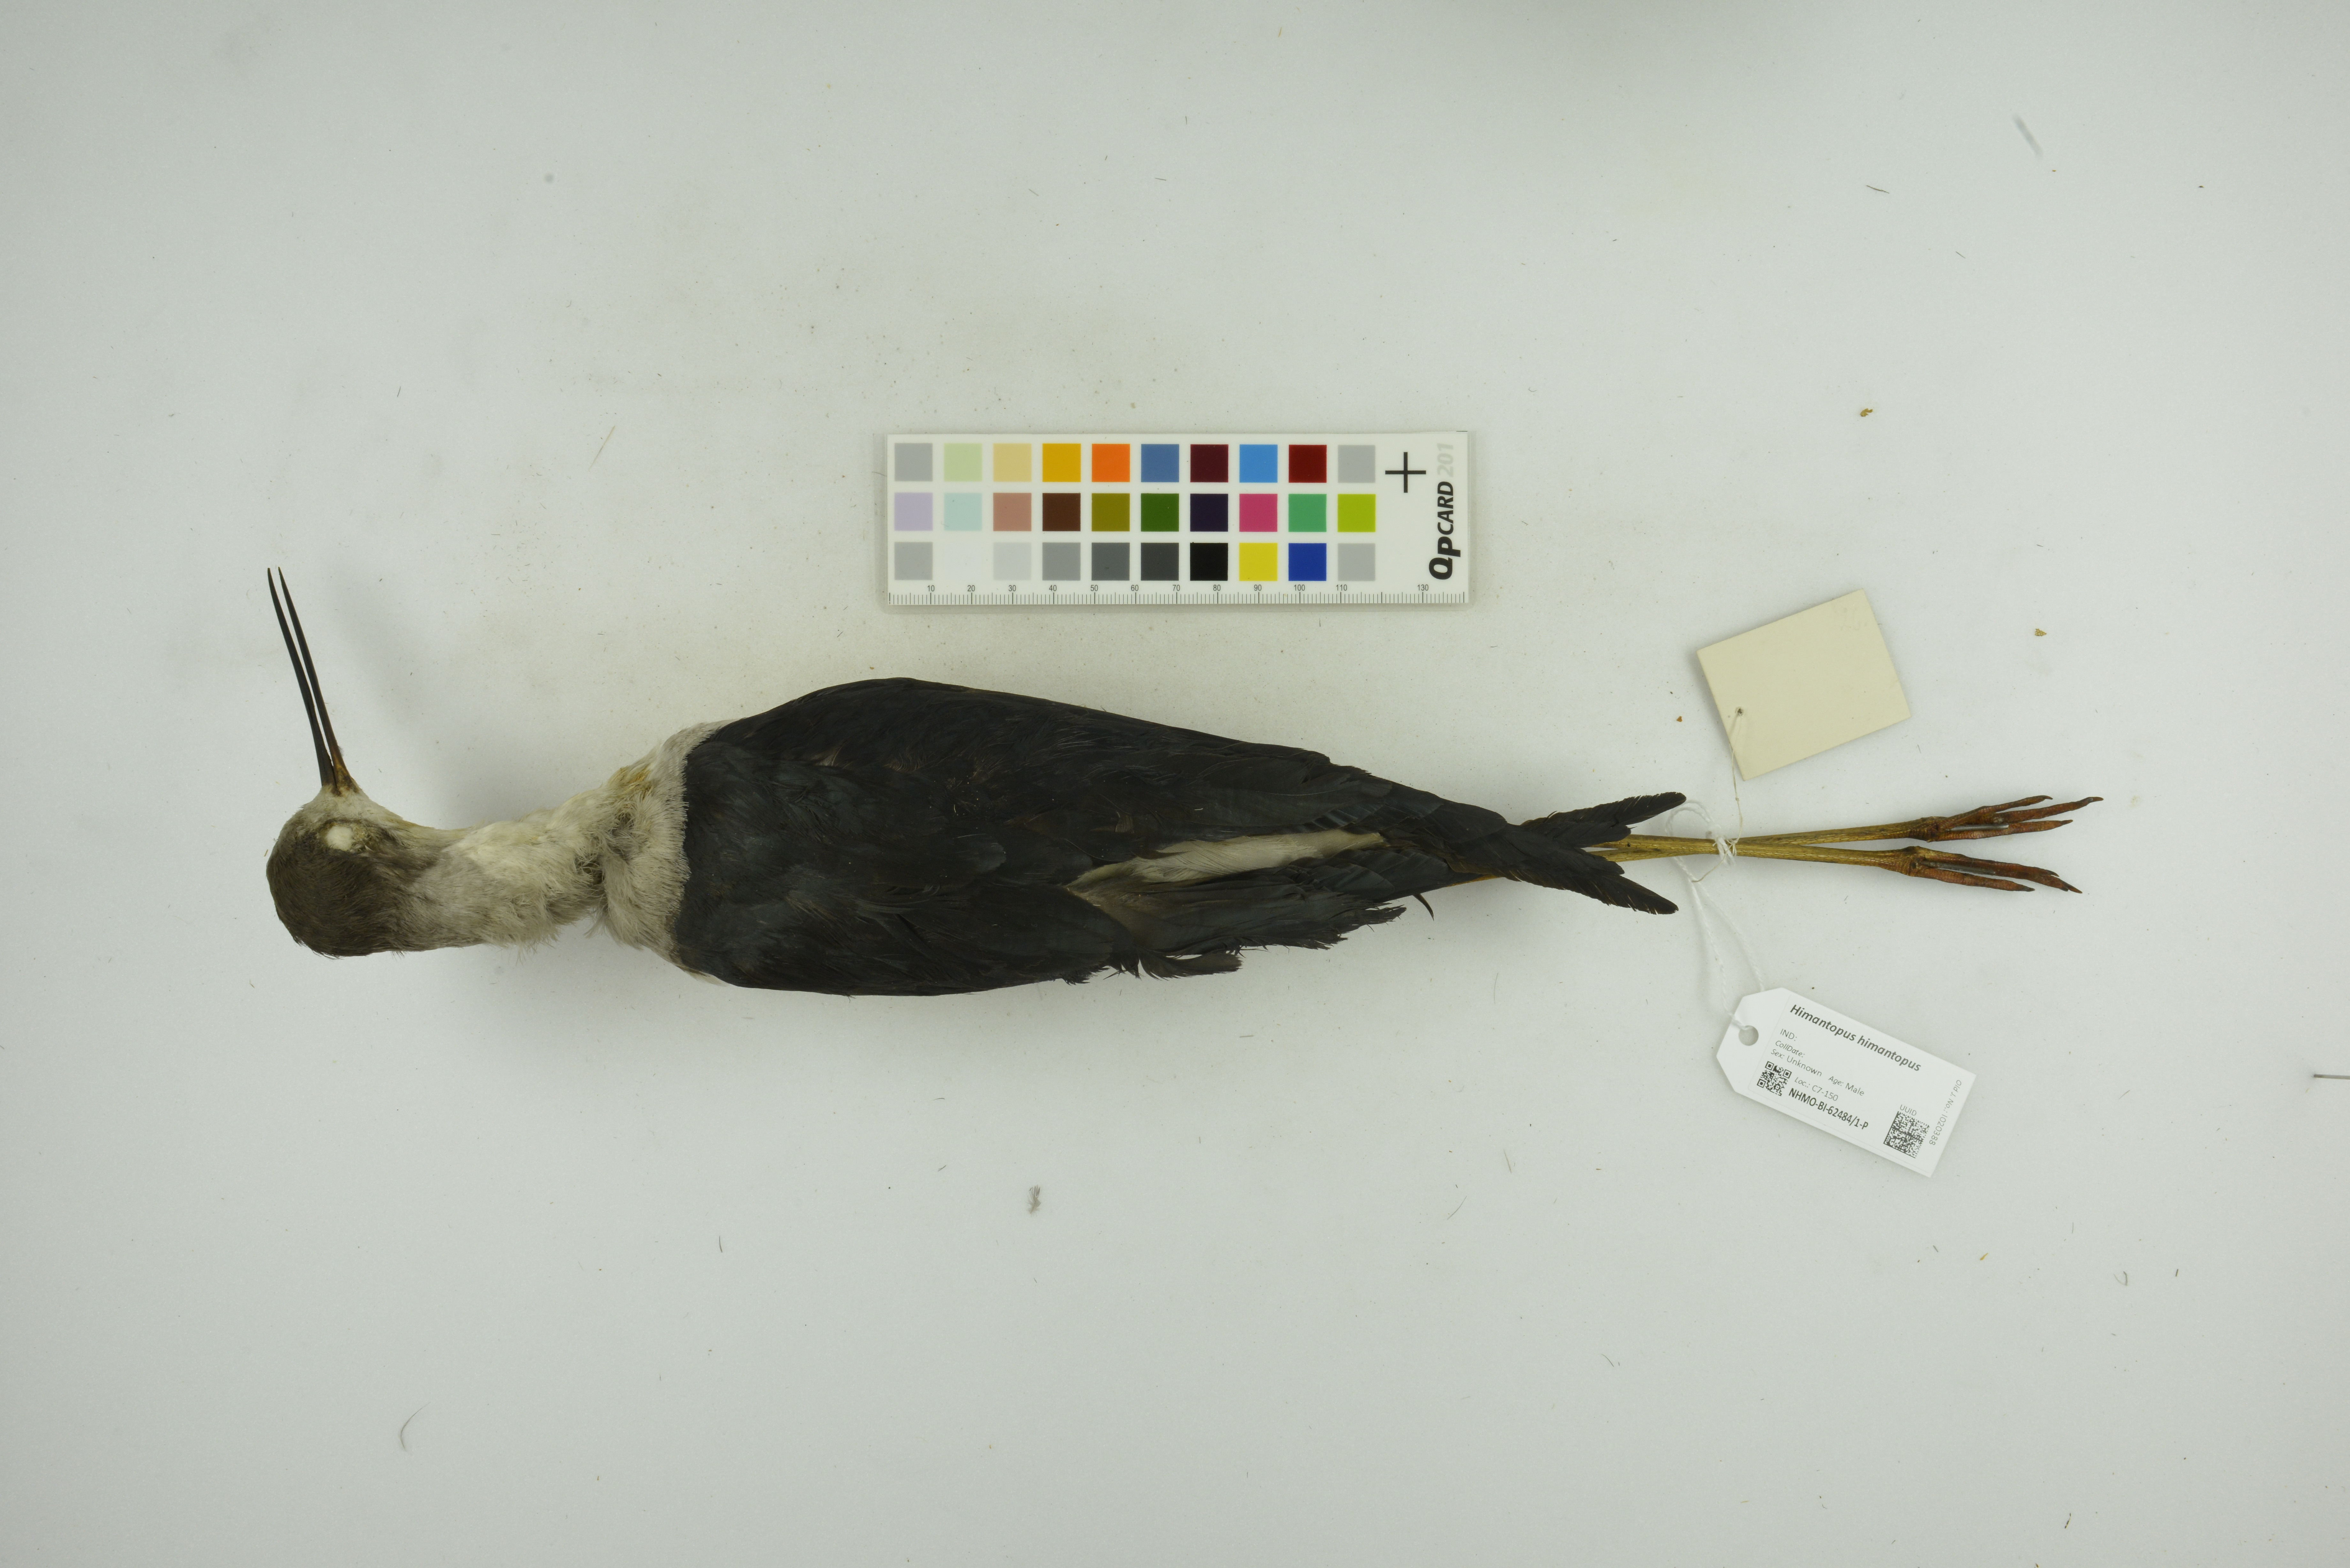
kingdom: Animalia
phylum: Chordata
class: Aves
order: Charadriiformes
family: Recurvirostridae
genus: Himantopus
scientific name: Himantopus himantopus
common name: Black-winged stilt
